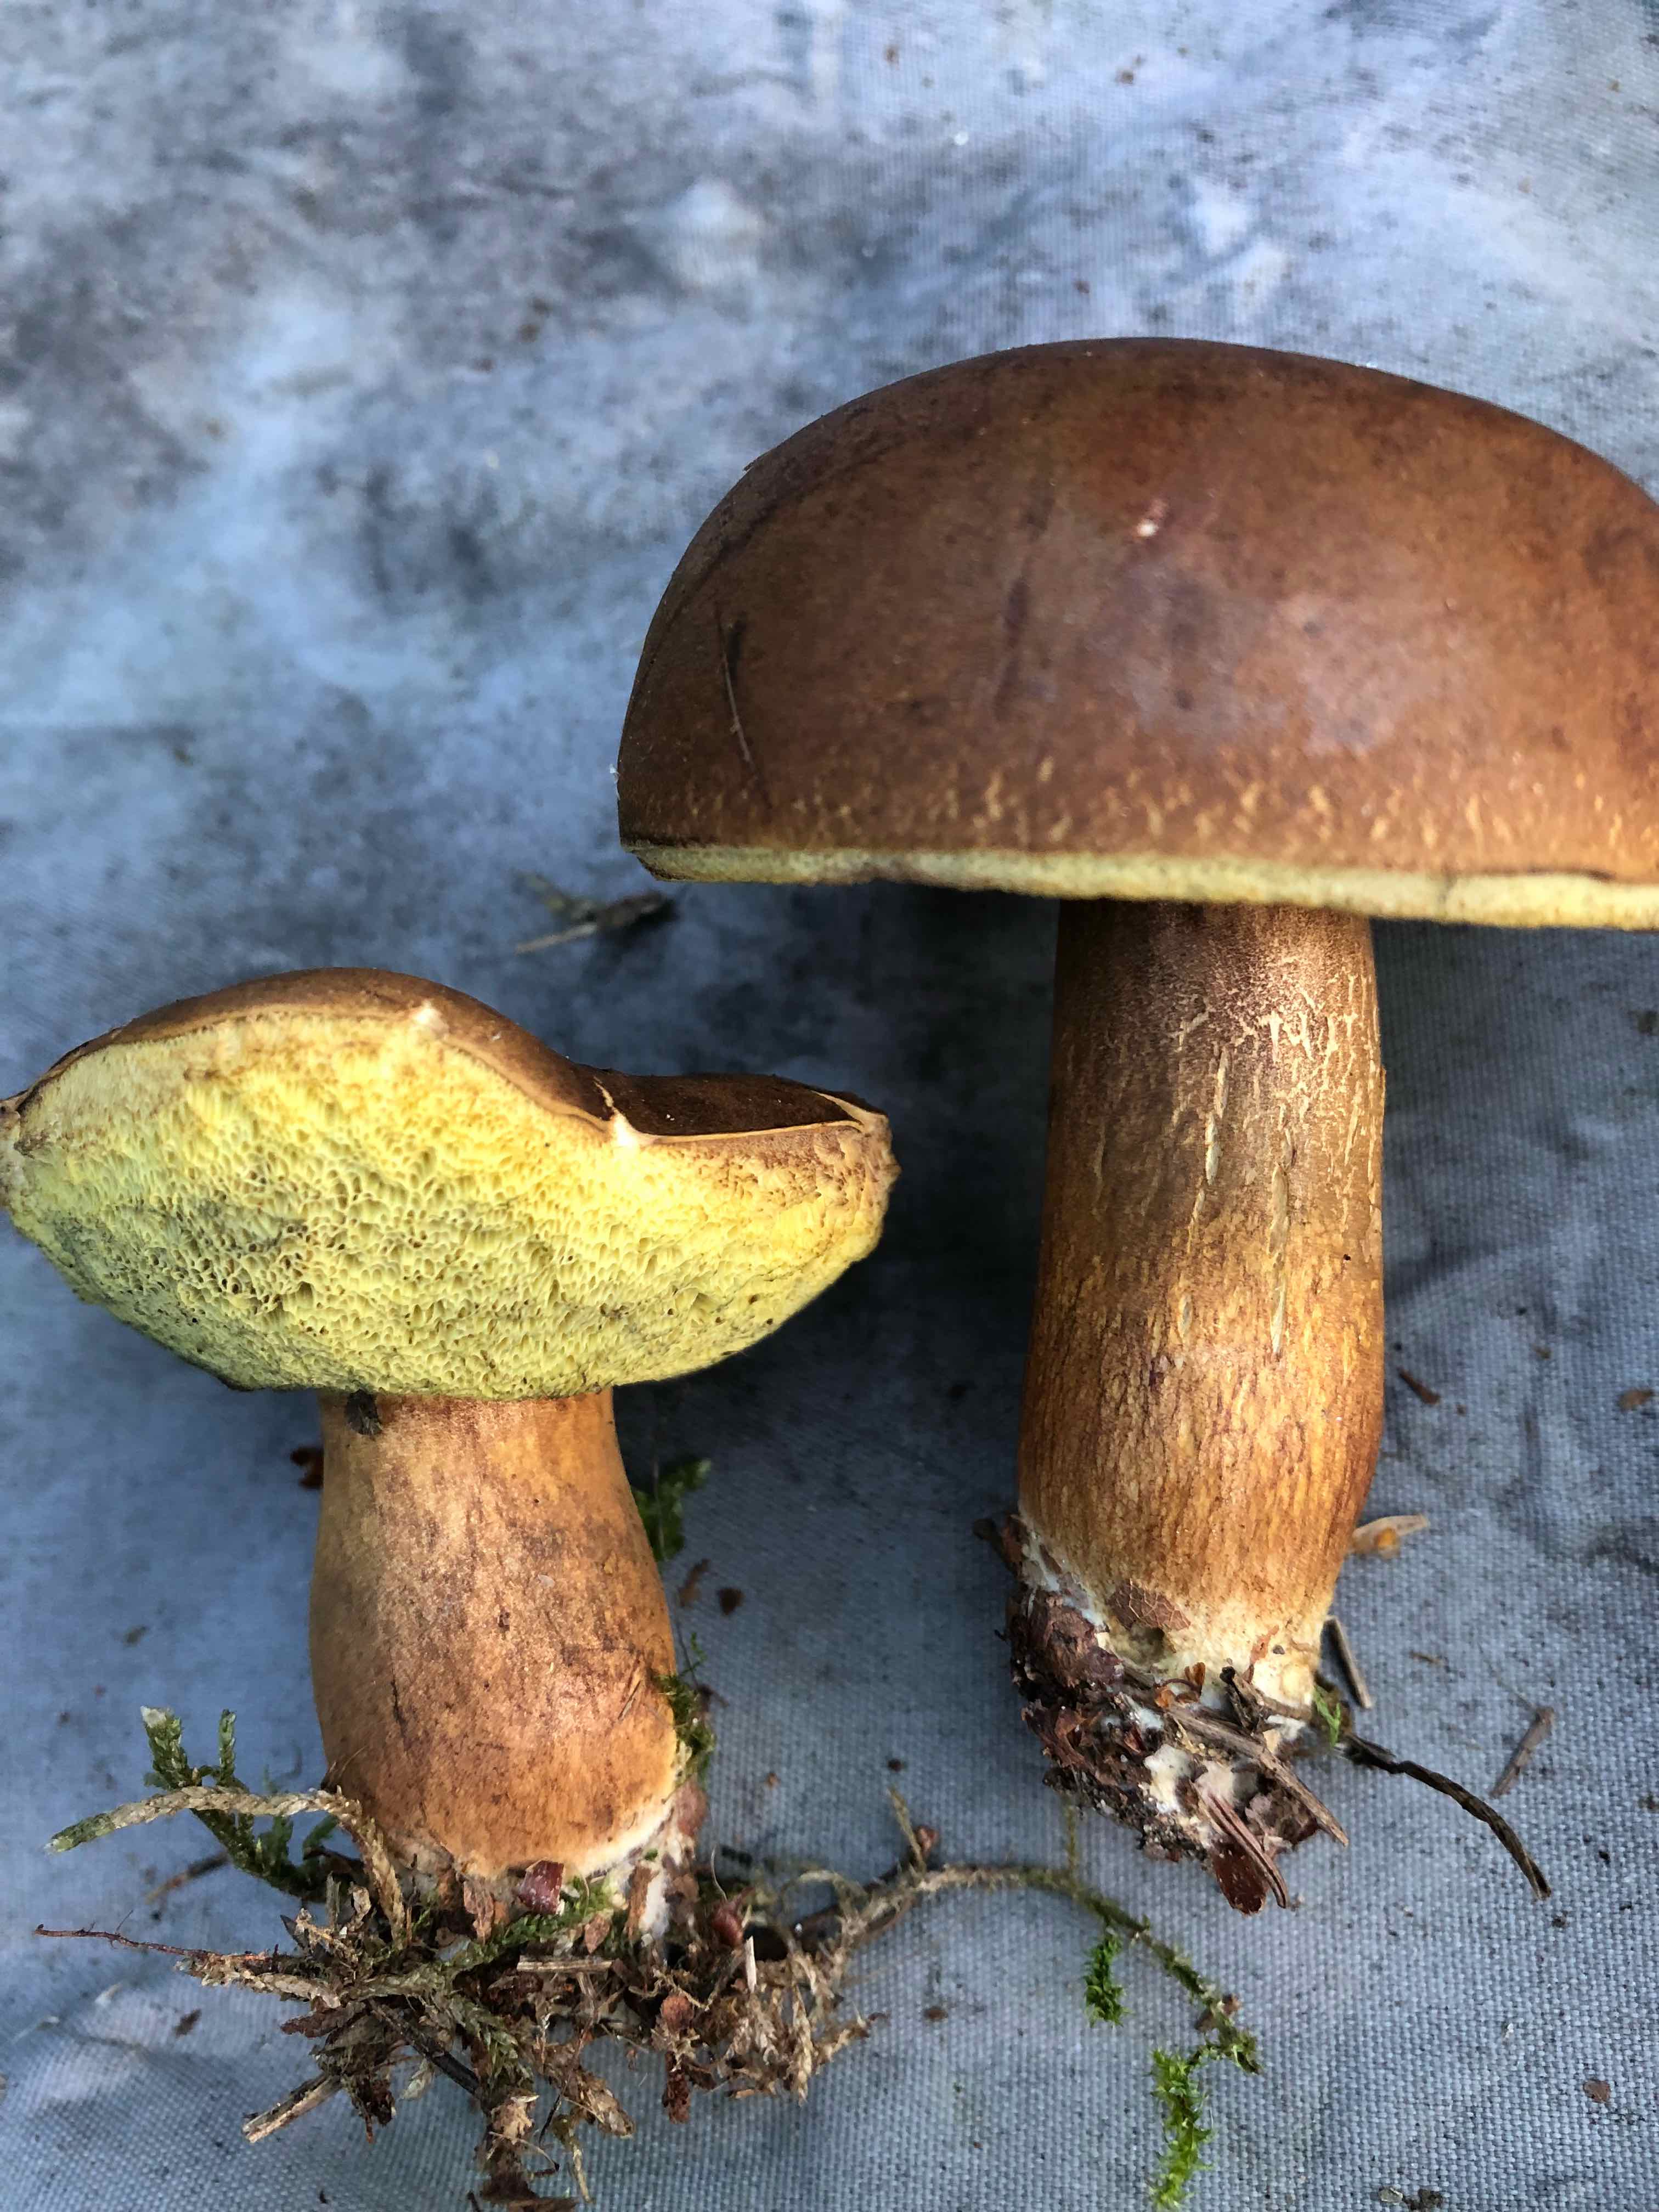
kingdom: Fungi
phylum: Basidiomycota
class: Agaricomycetes
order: Boletales
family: Boletaceae
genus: Imleria
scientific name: Imleria badia
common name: brunstokket rørhat
